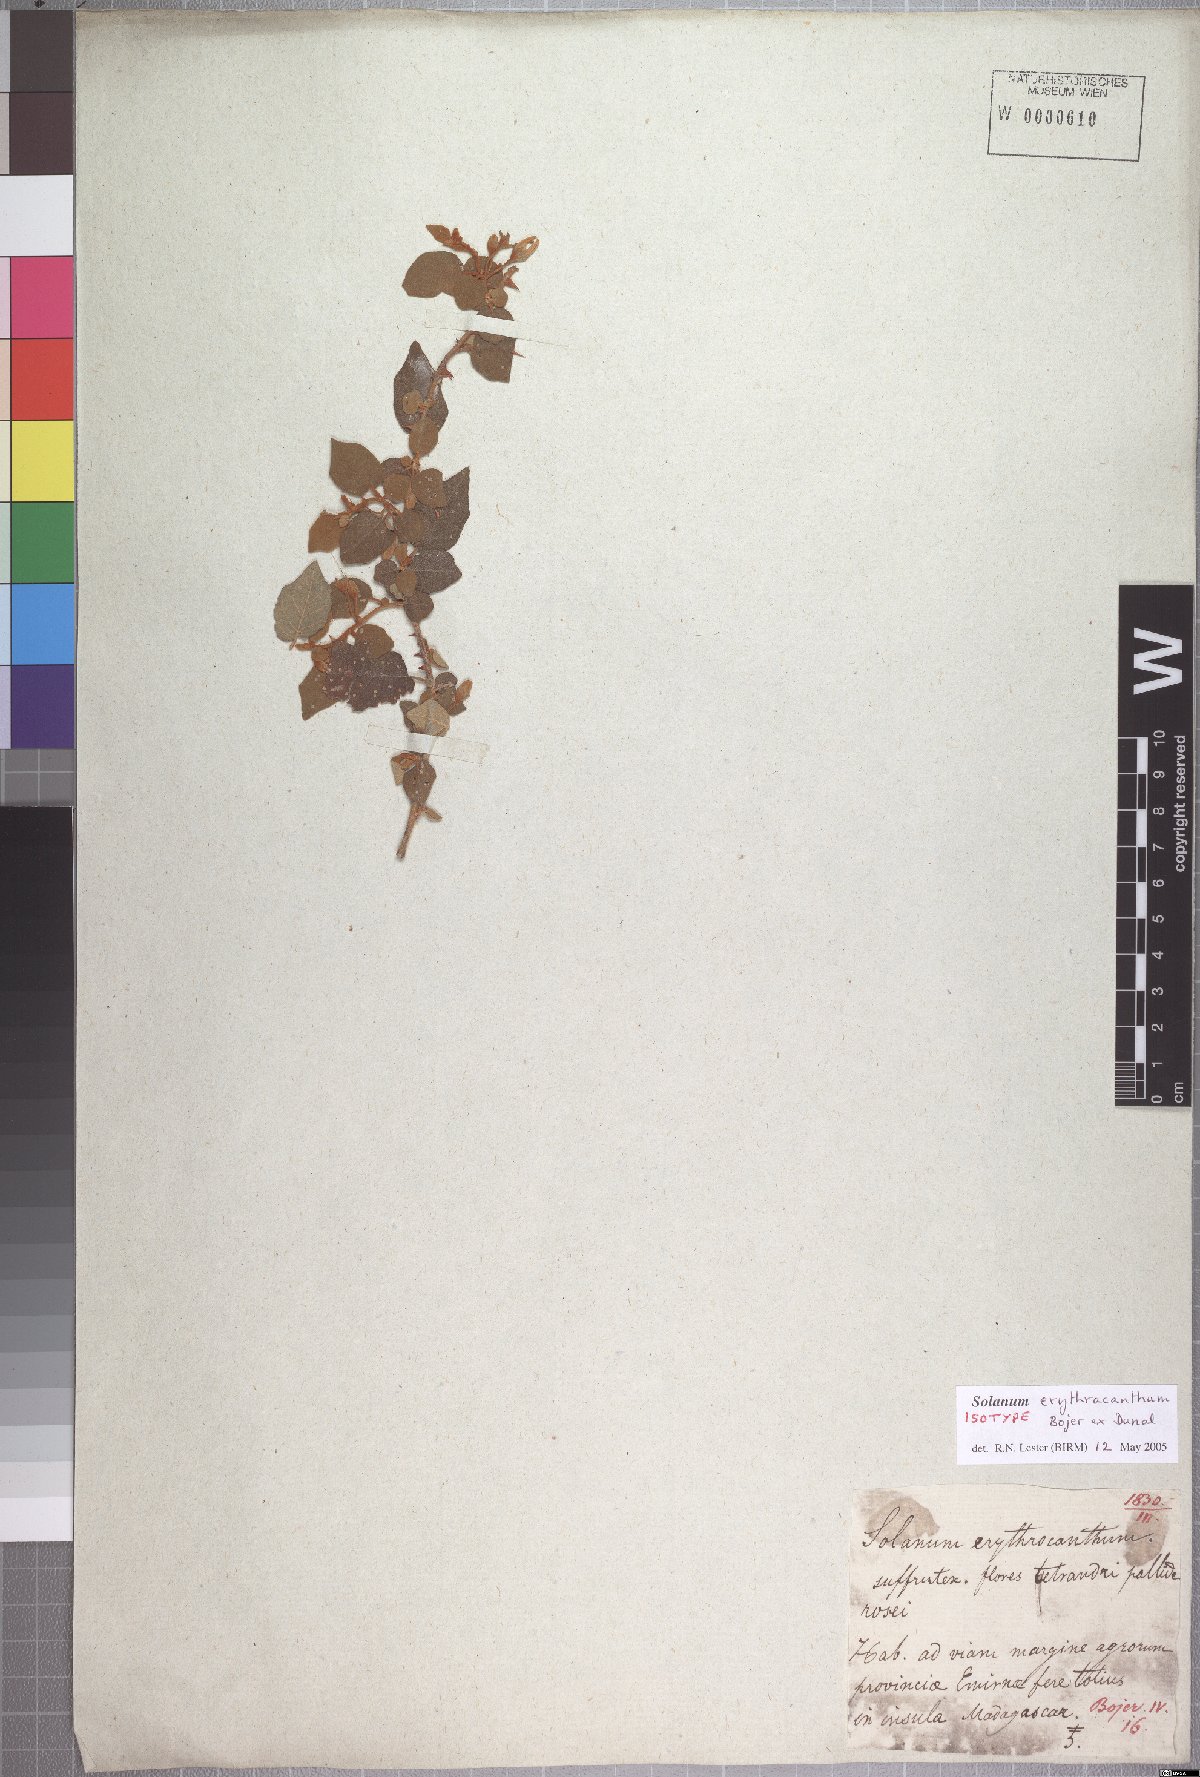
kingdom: Plantae
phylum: Tracheophyta
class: Magnoliopsida
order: Solanales
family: Solanaceae
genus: Solanum
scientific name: Solanum erythracanthum
